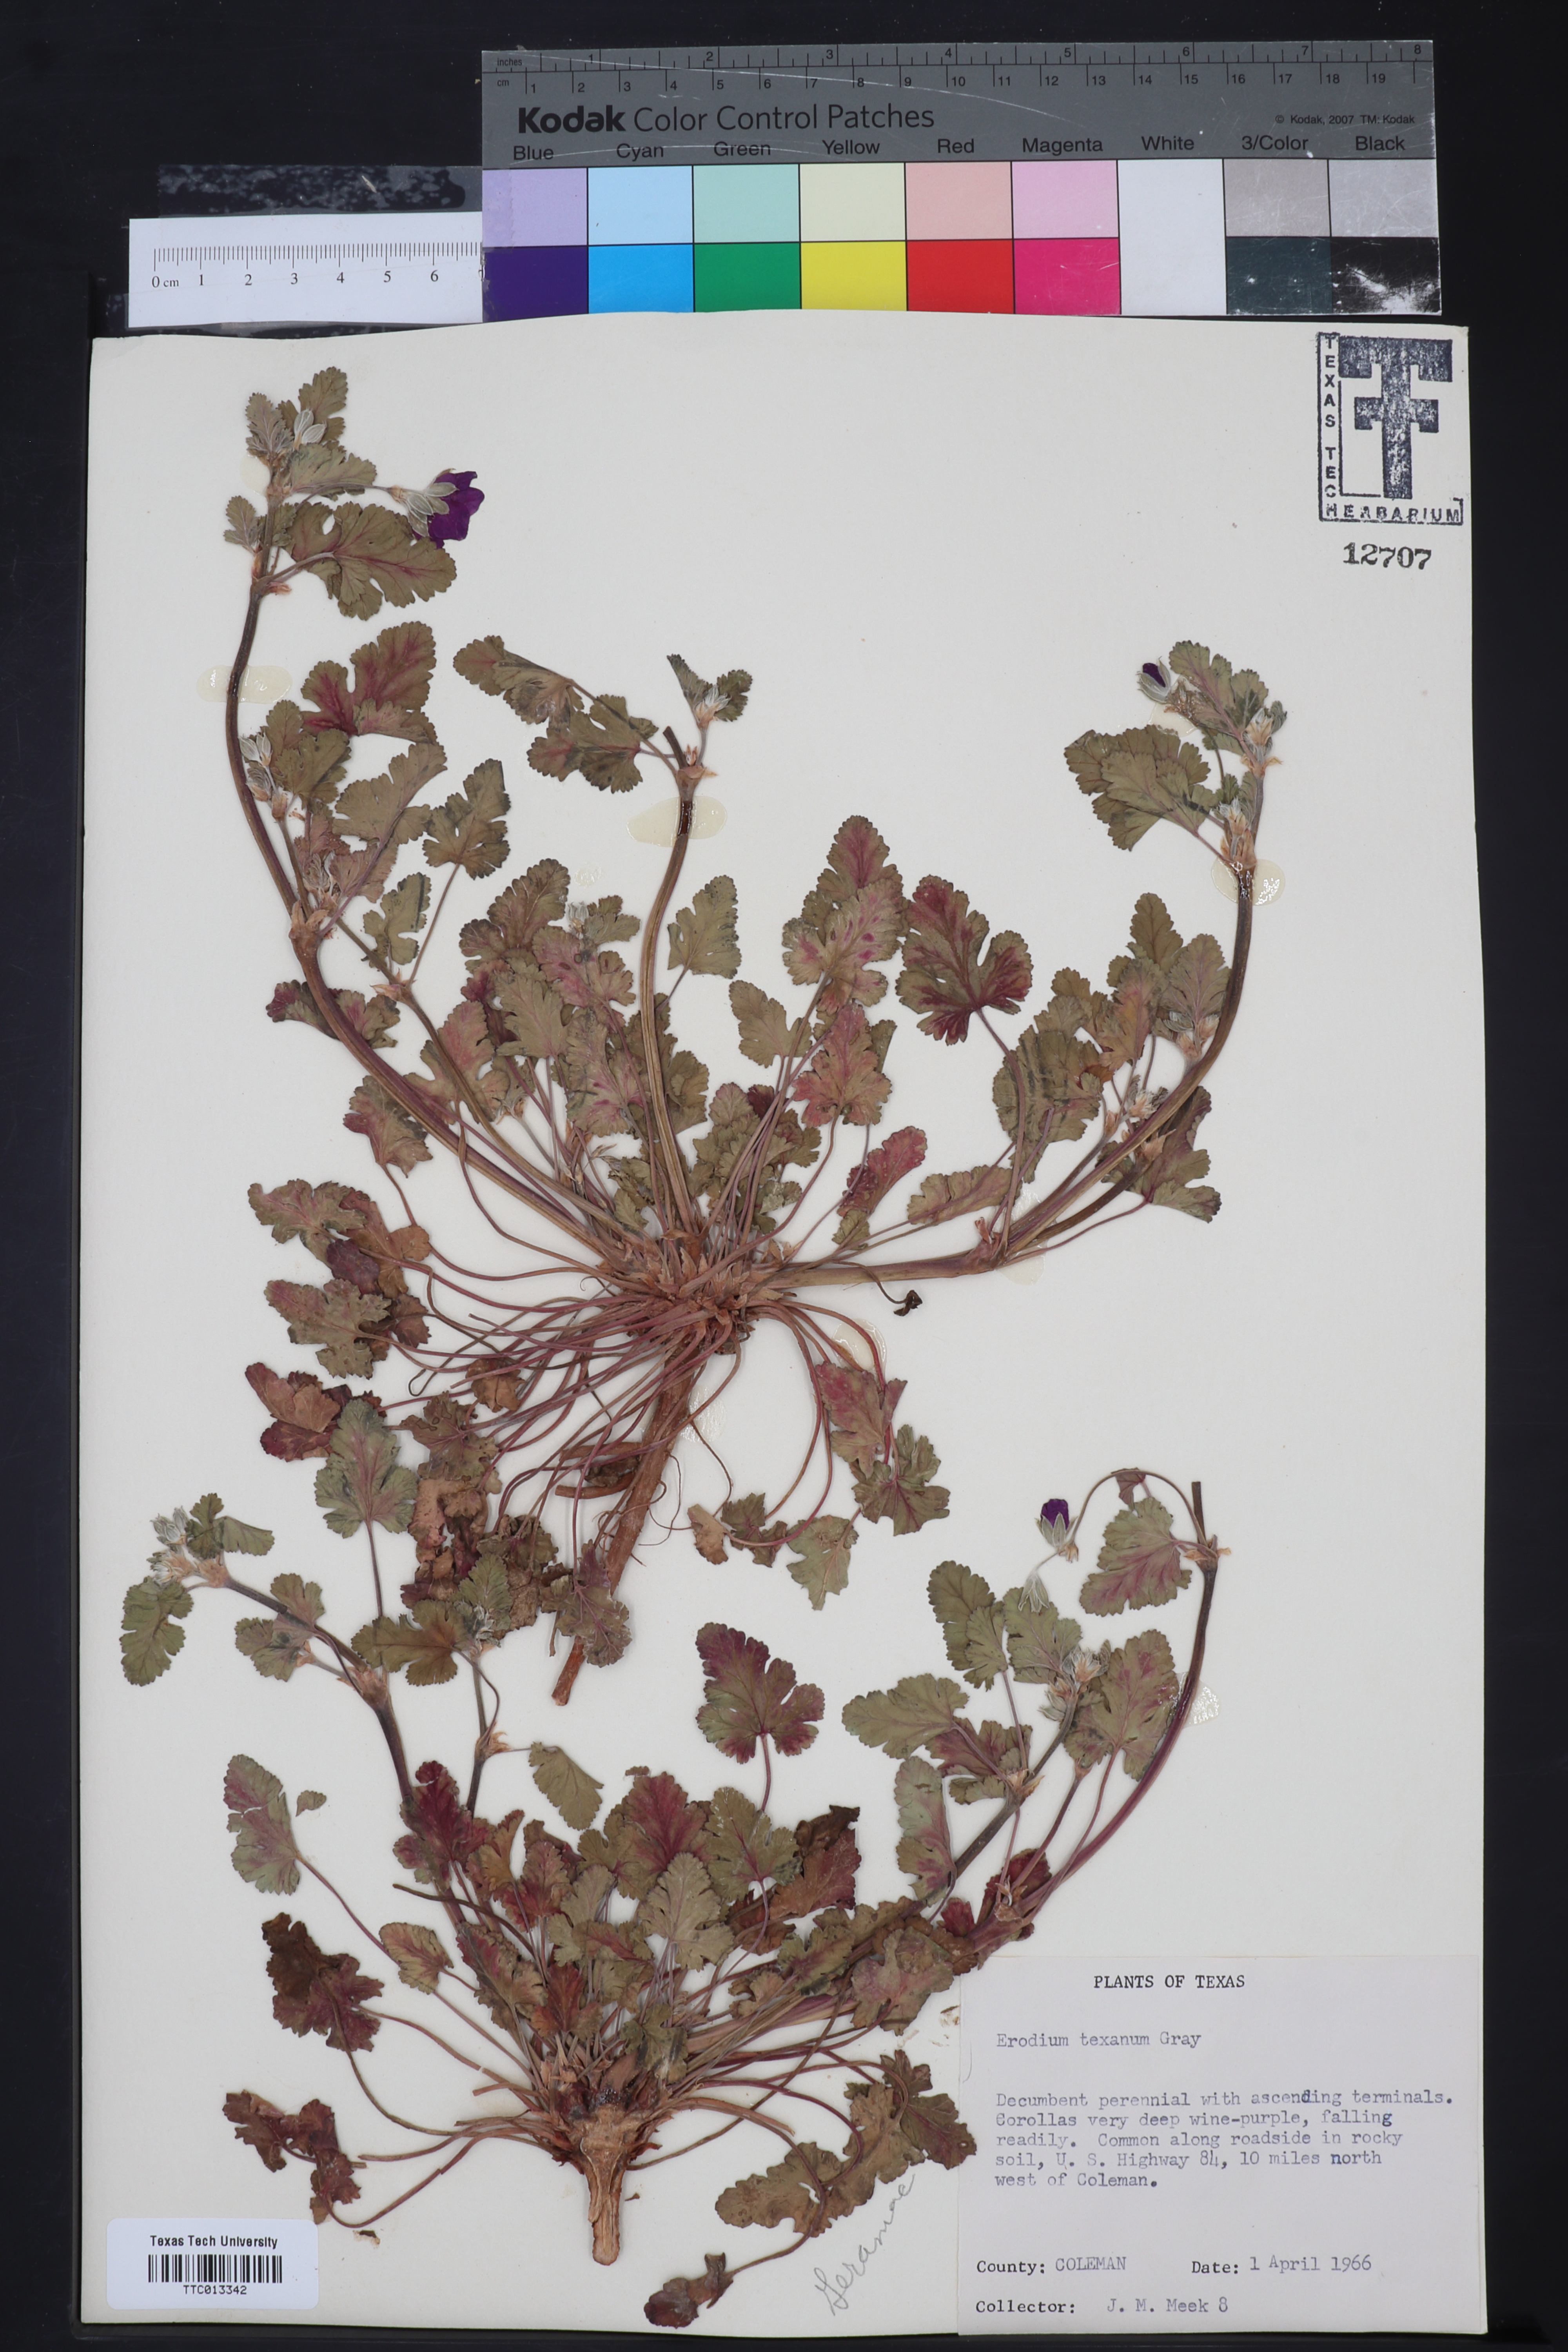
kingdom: Plantae
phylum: Tracheophyta
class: Magnoliopsida
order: Geraniales
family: Geraniaceae
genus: Erodium
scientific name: Erodium texanum
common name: Texas stork's-bill
